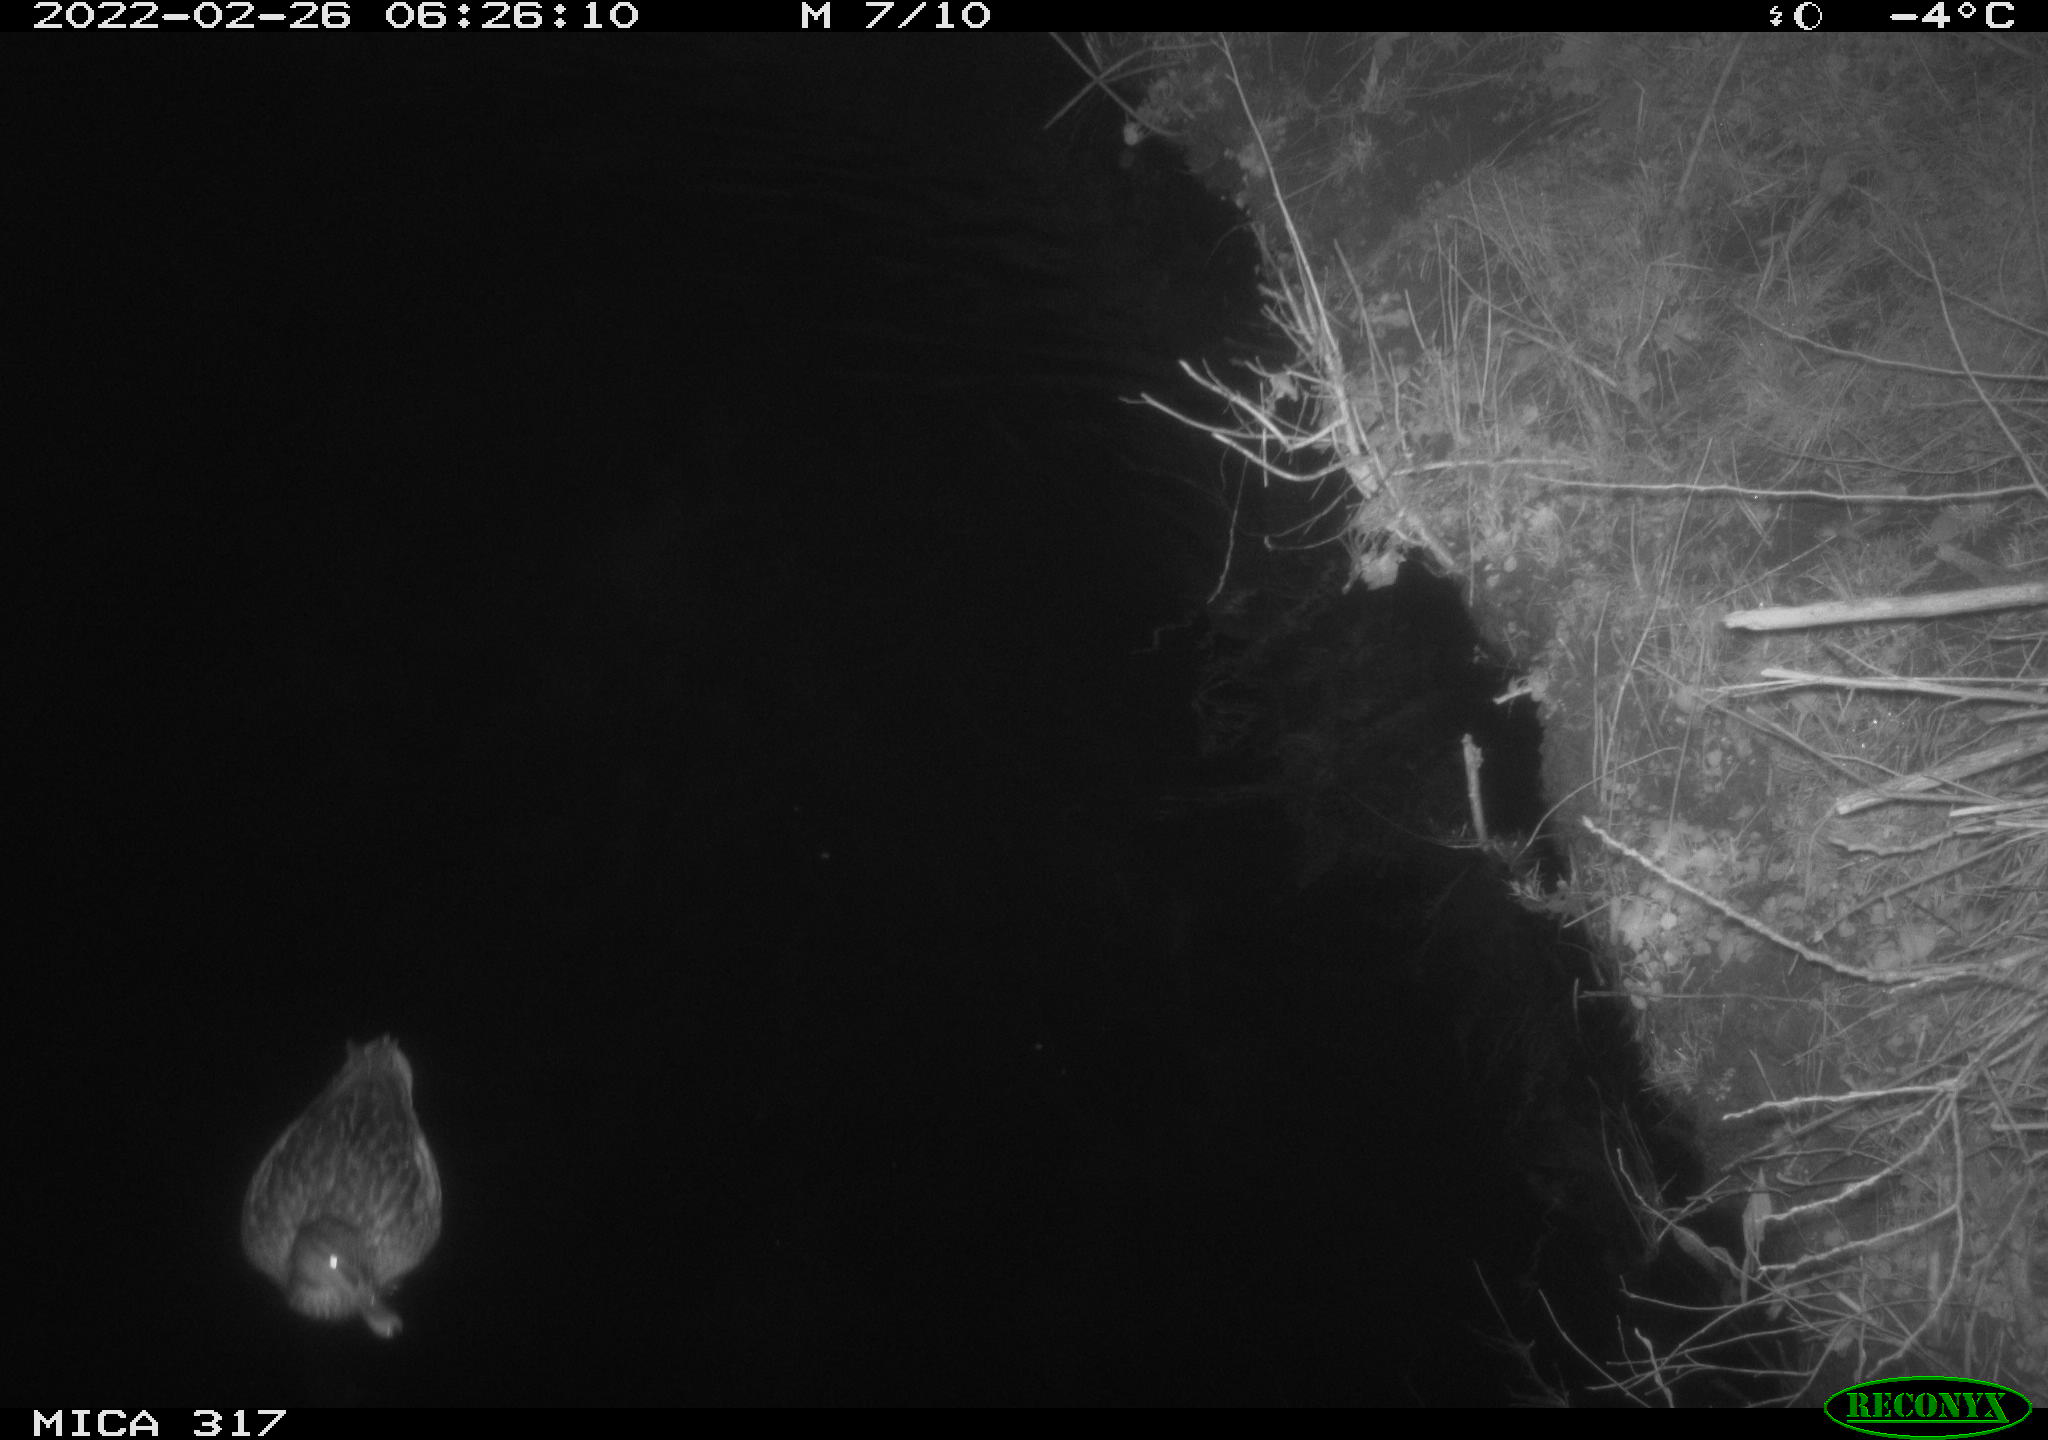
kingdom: Animalia
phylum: Chordata
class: Aves
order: Anseriformes
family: Anatidae
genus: Anas
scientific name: Anas platyrhynchos
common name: Mallard
